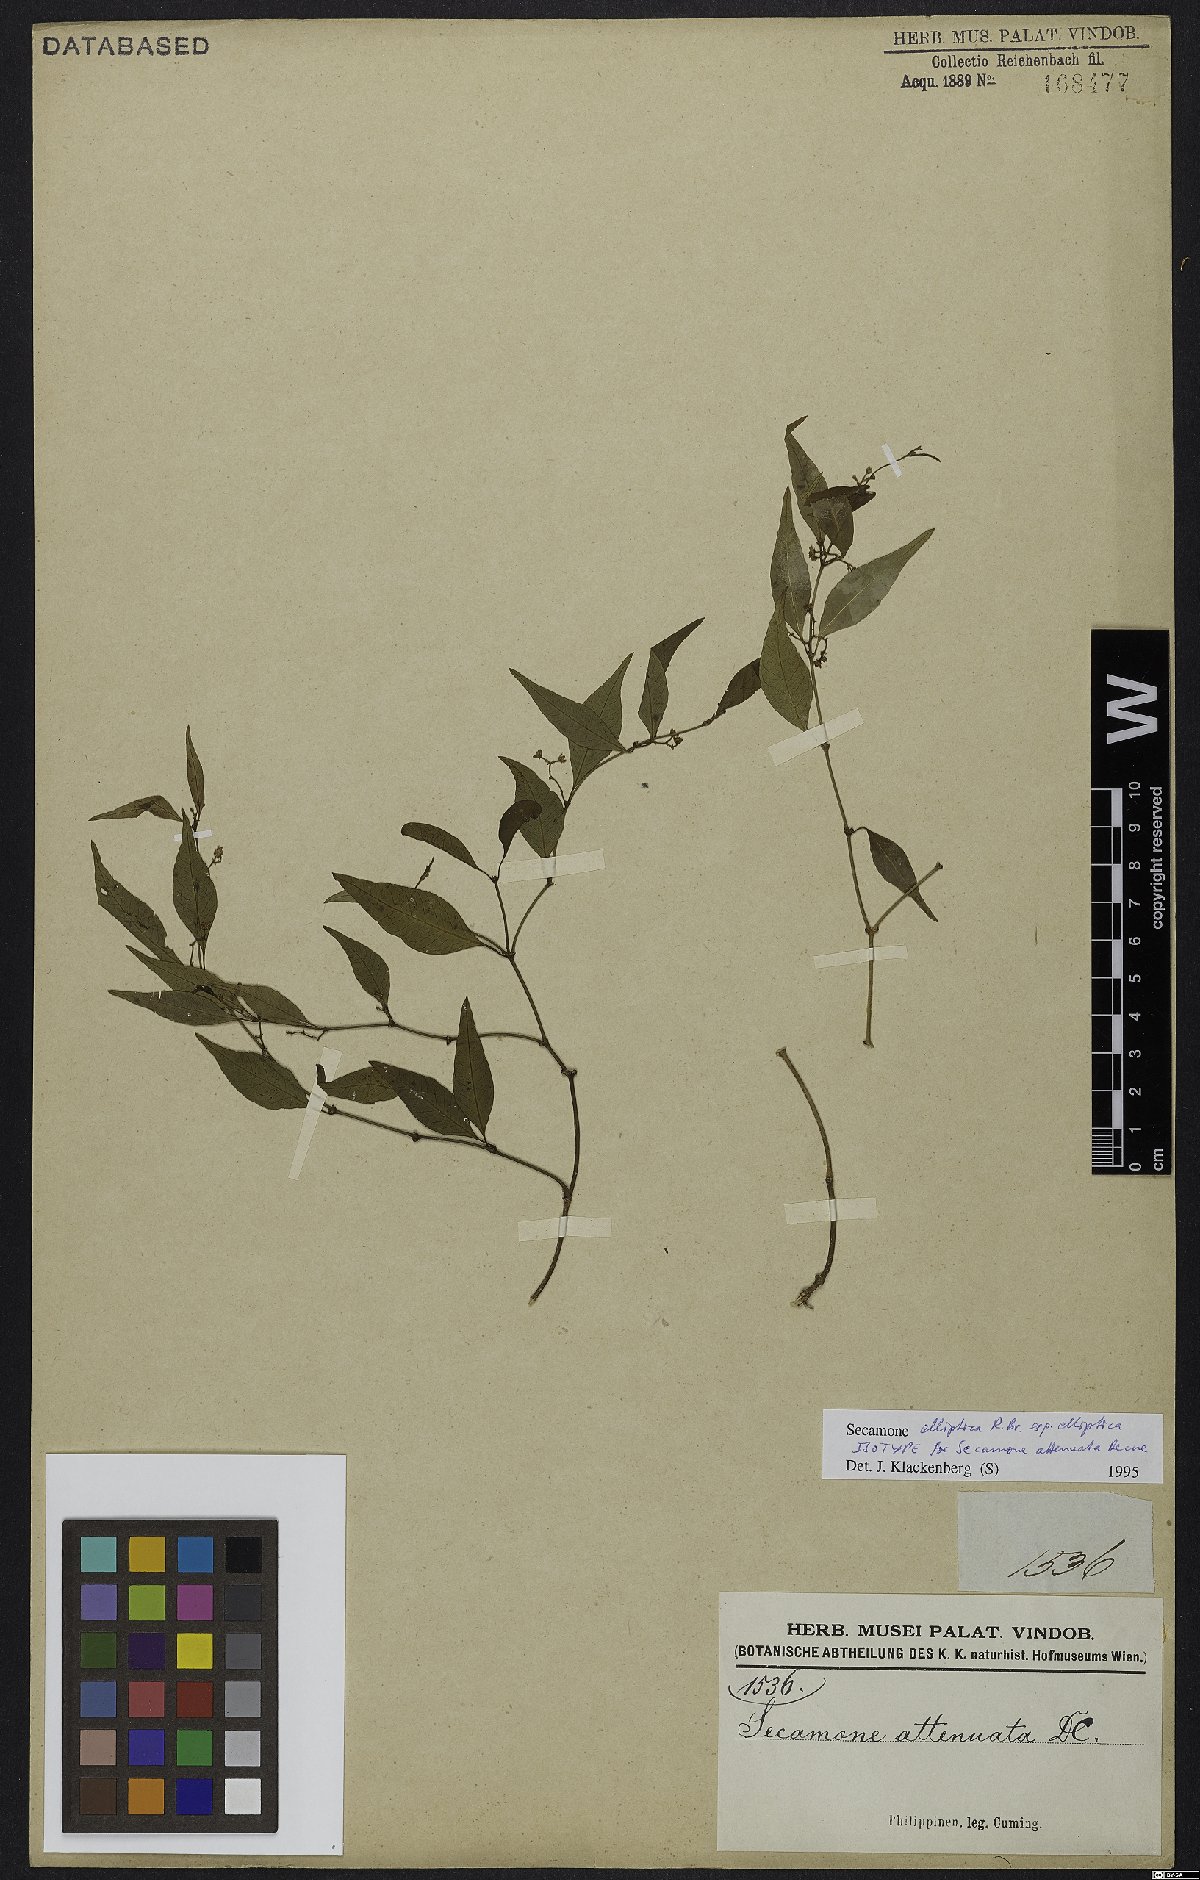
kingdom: Plantae
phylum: Tracheophyta
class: Magnoliopsida
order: Gentianales
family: Apocynaceae
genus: Secamone
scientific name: Secamone elliptica
